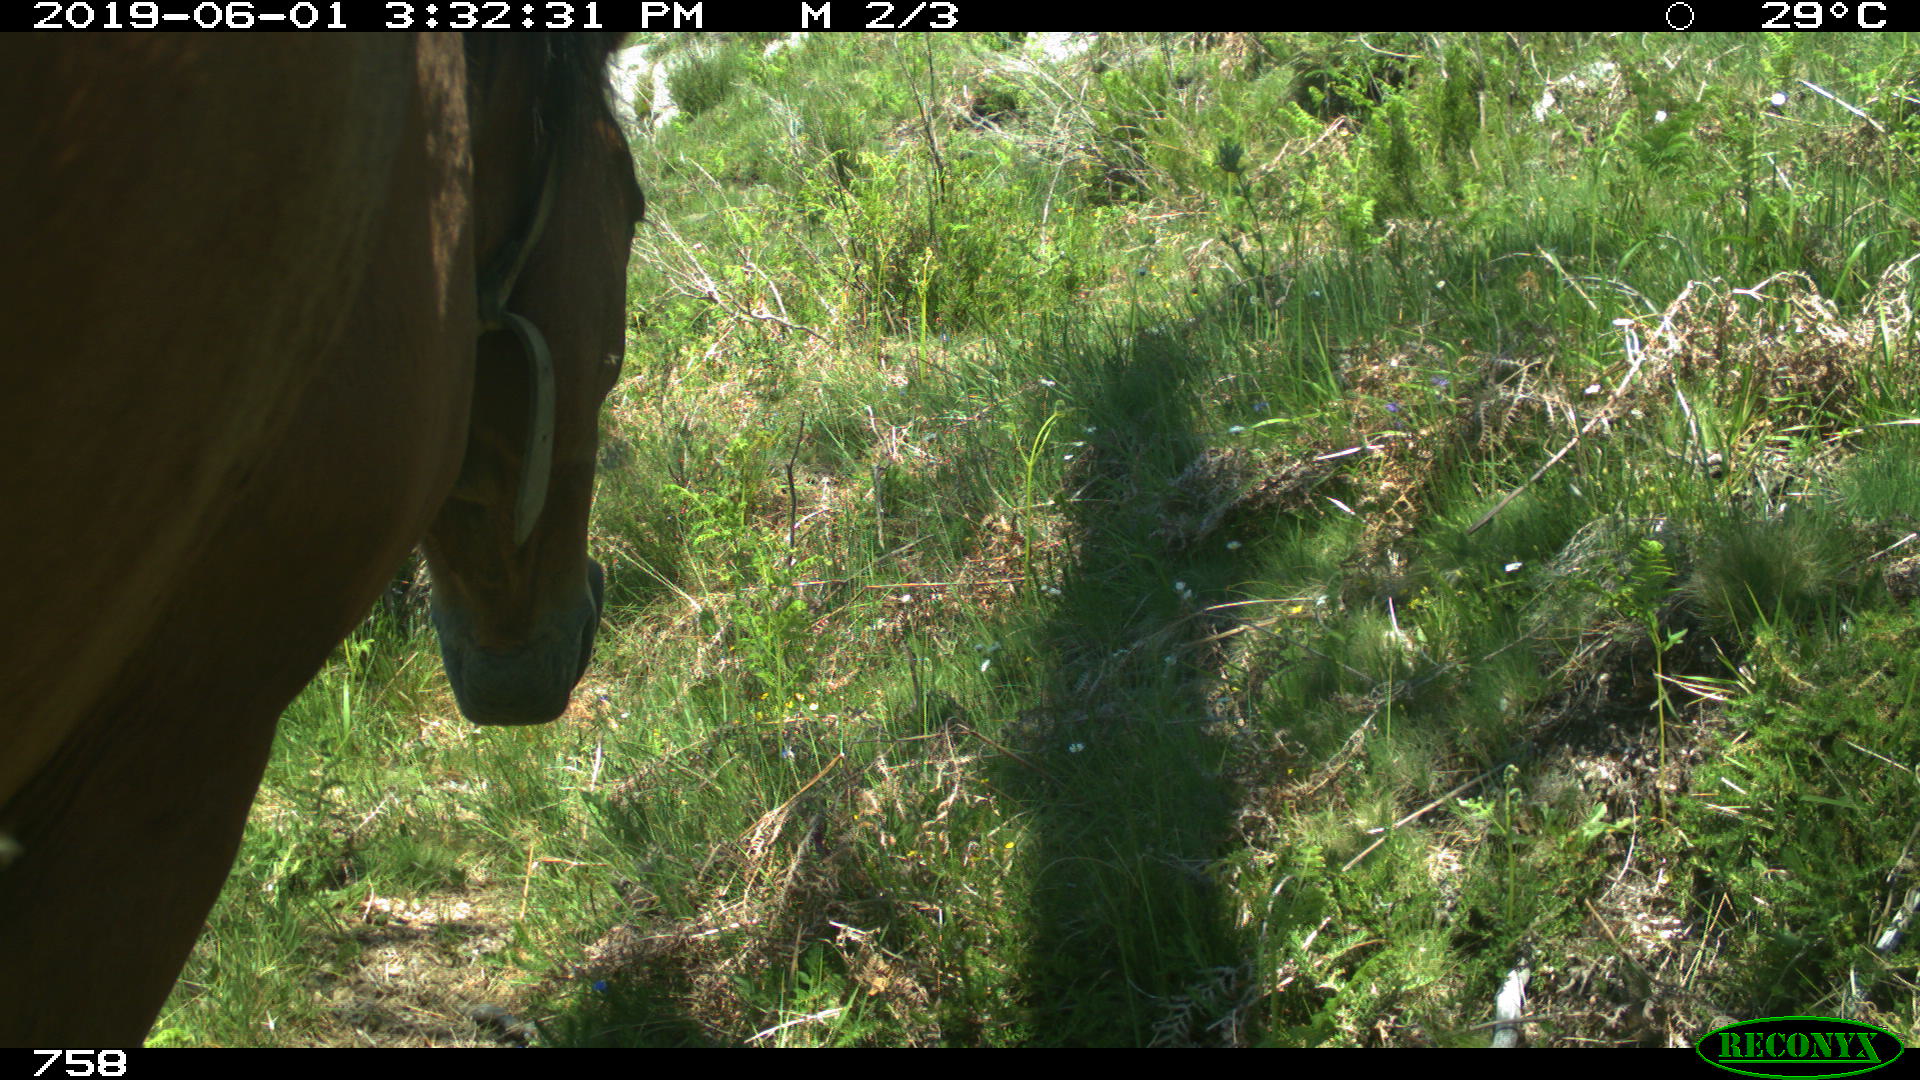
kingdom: Animalia
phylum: Chordata
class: Mammalia
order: Perissodactyla
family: Equidae
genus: Equus
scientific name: Equus caballus
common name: Horse
